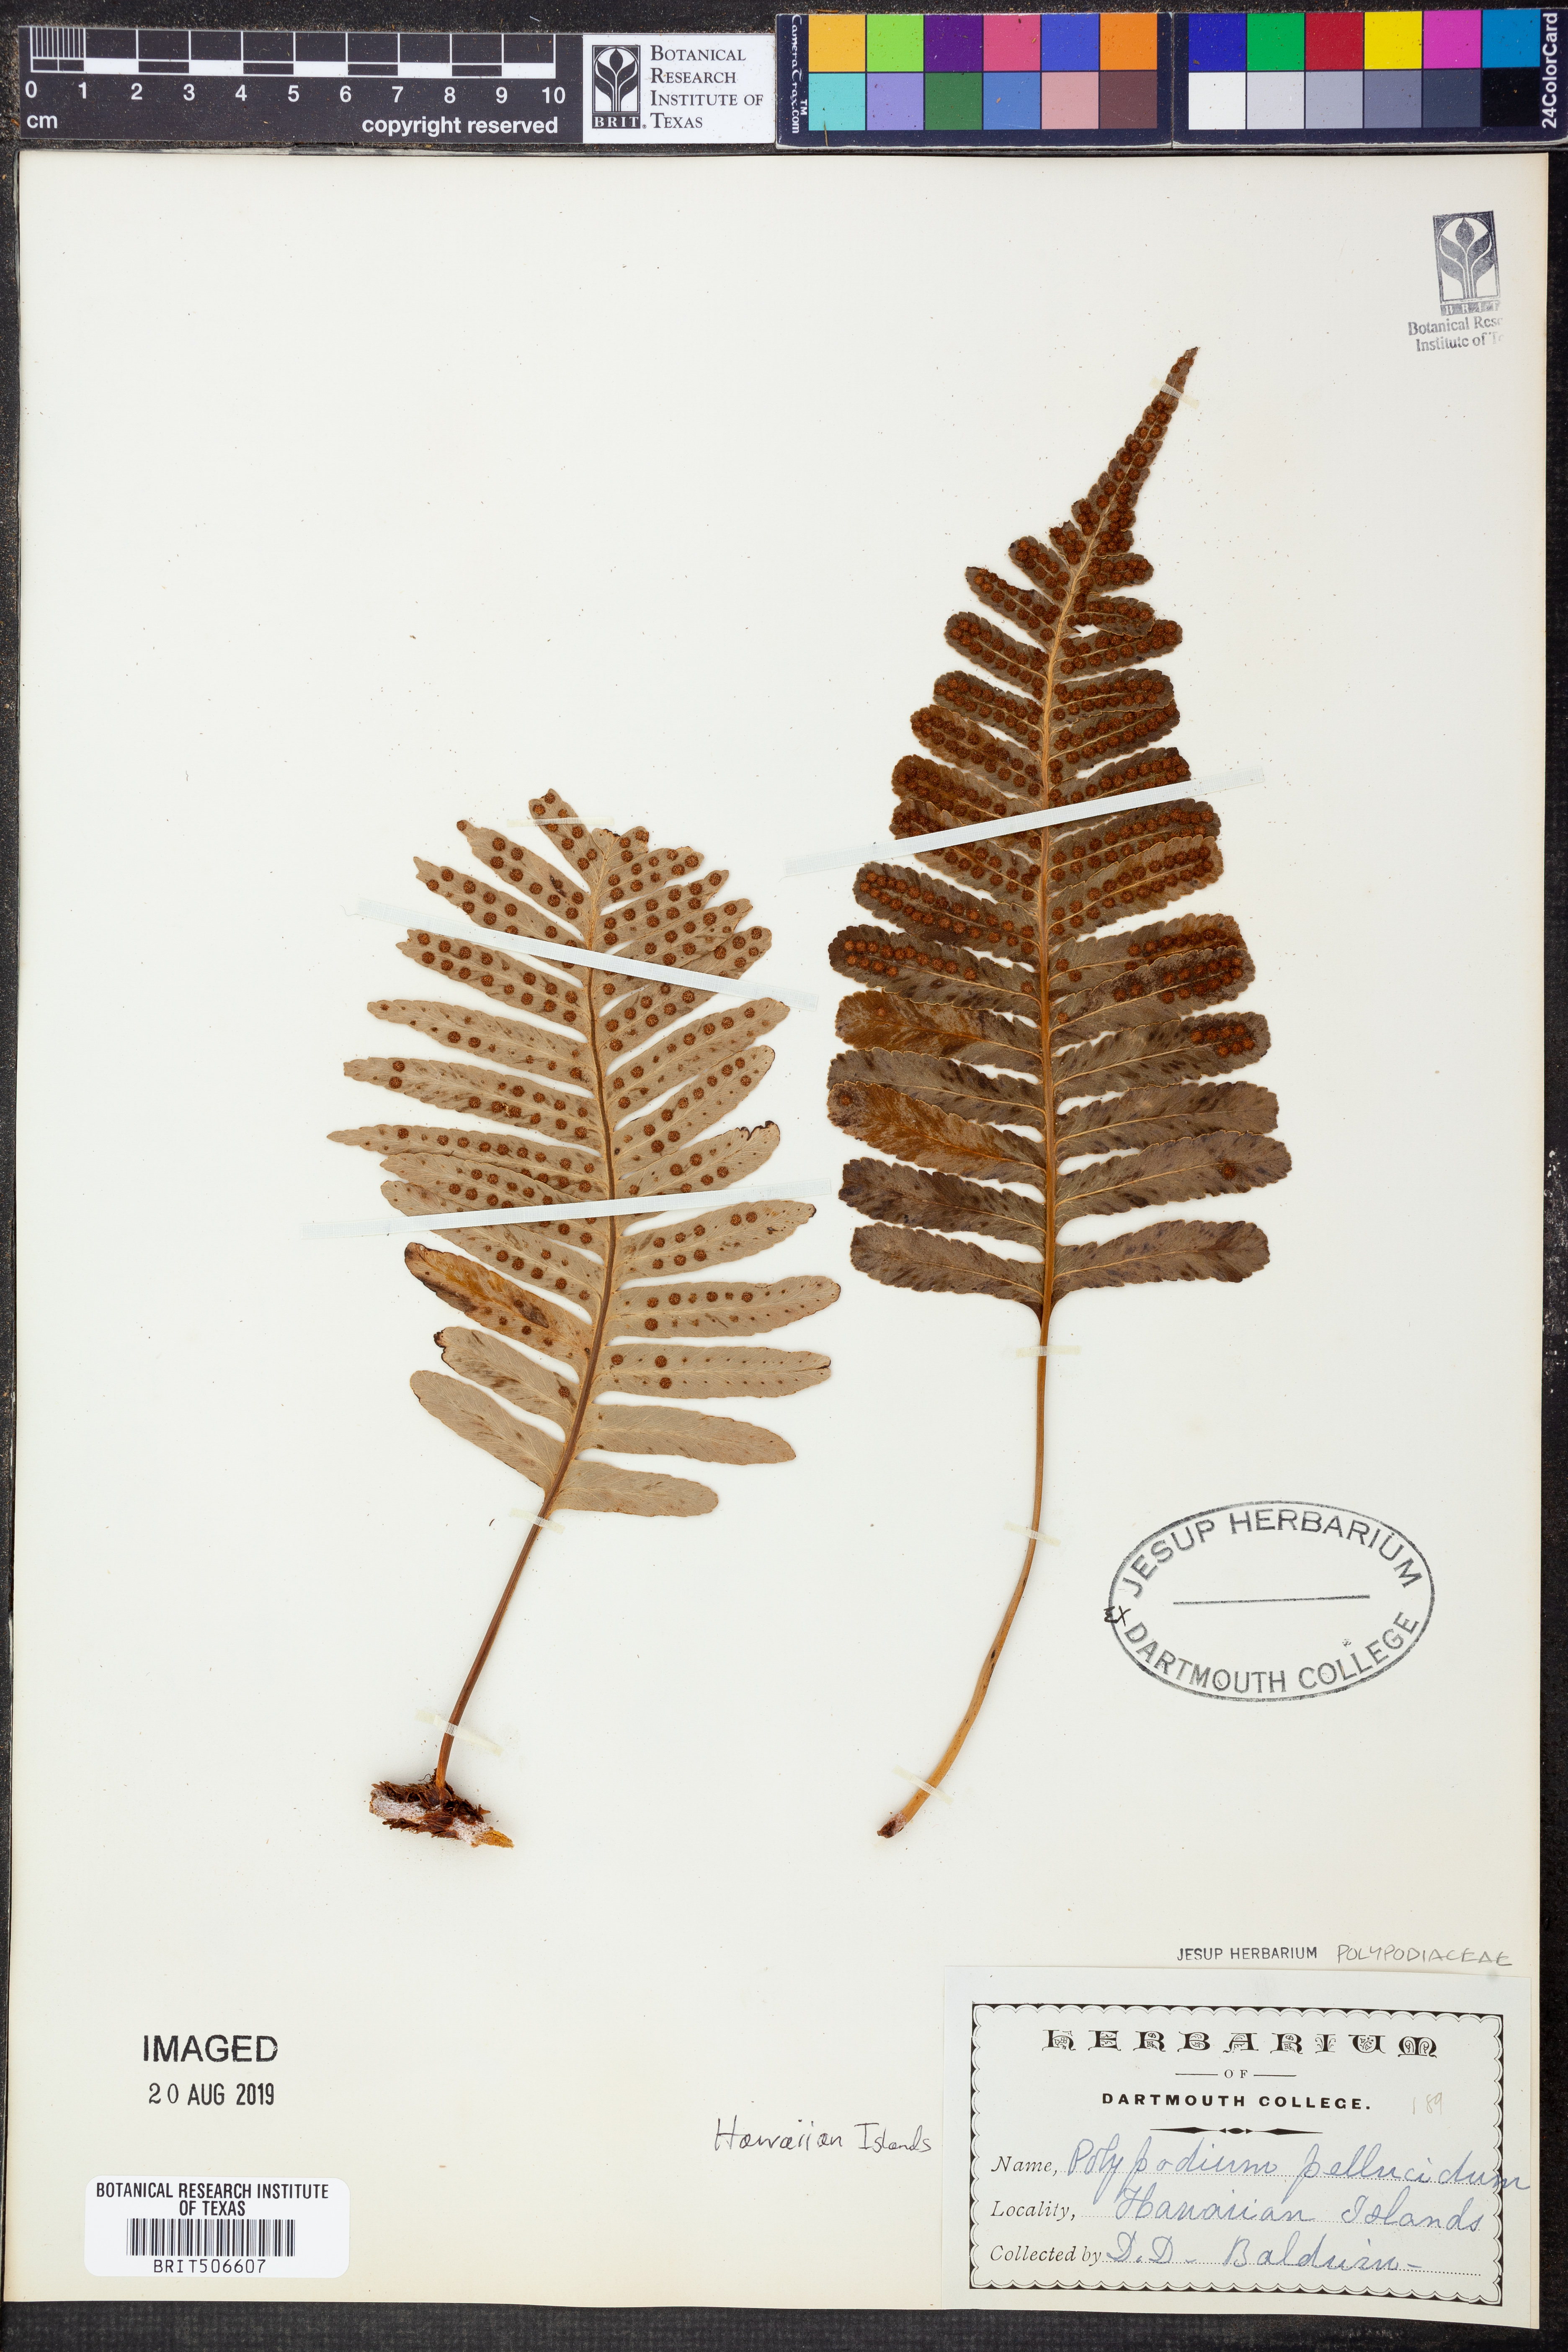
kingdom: Plantae
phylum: Tracheophyta
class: Polypodiopsida
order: Polypodiales
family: Polypodiaceae
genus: Polypodium
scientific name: Polypodium pellucidum
